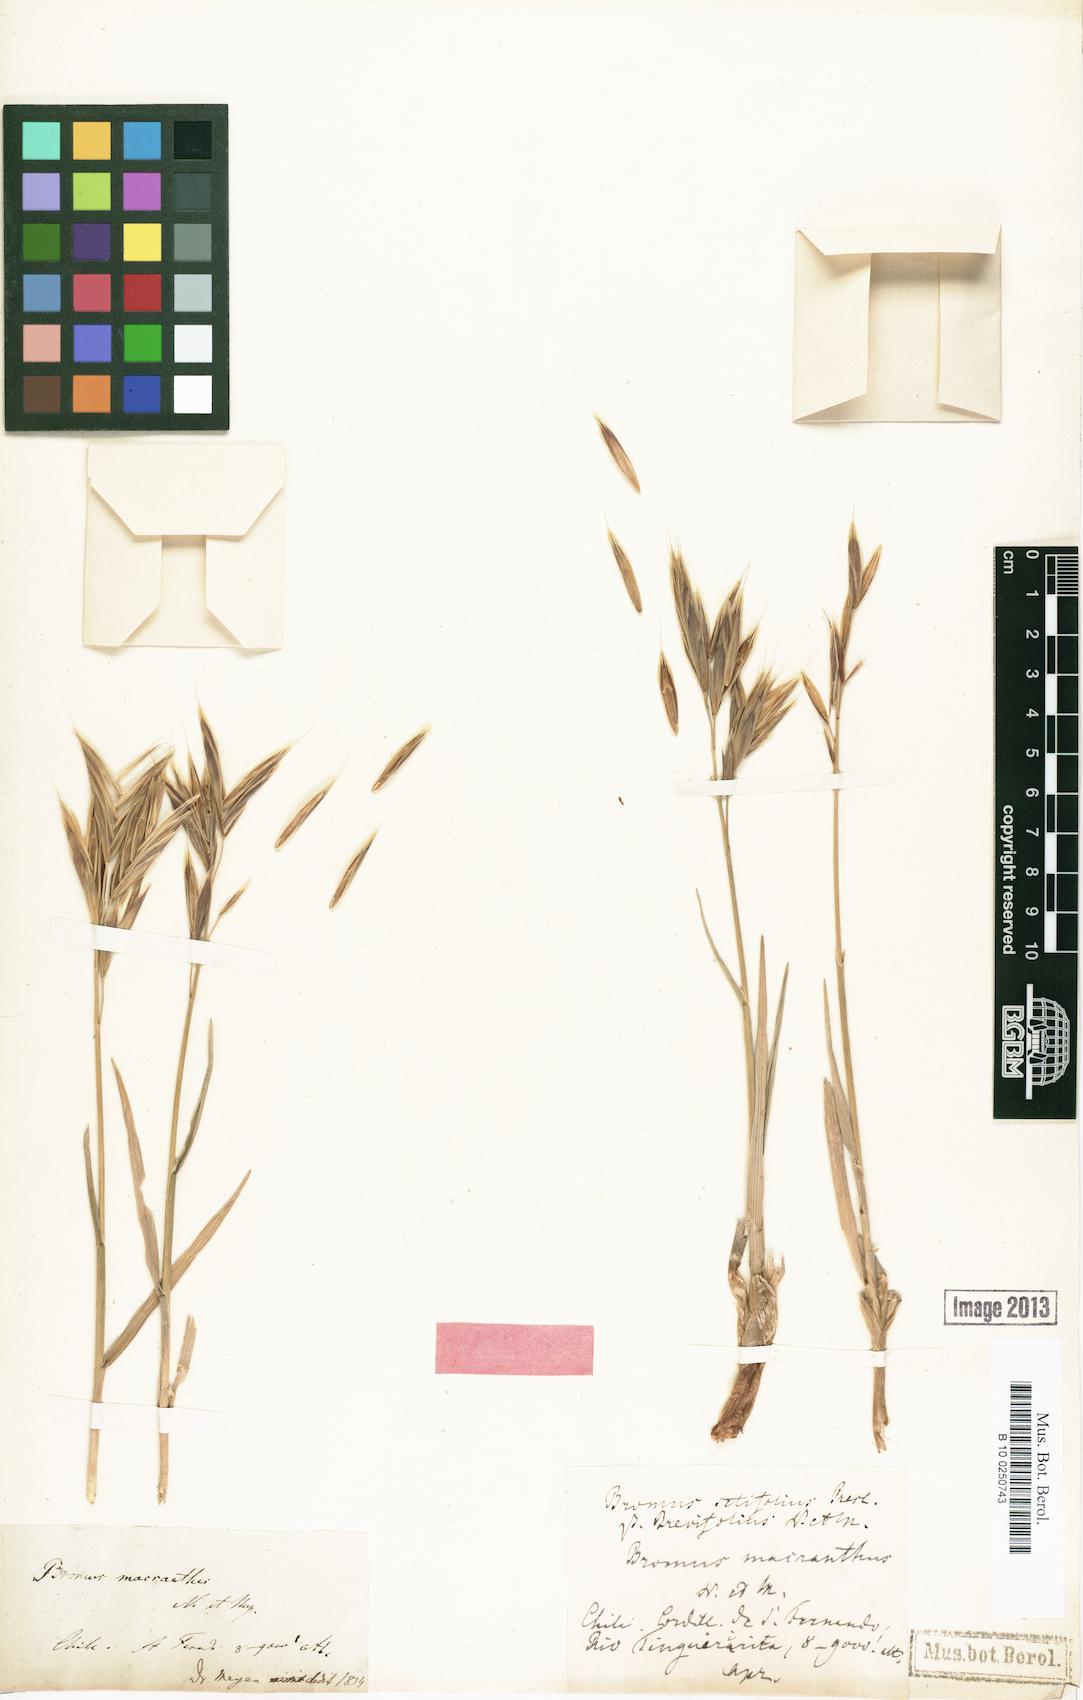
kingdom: Plantae
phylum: Tracheophyta
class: Liliopsida
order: Poales
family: Poaceae
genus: Bromus
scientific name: Bromus macranthus
